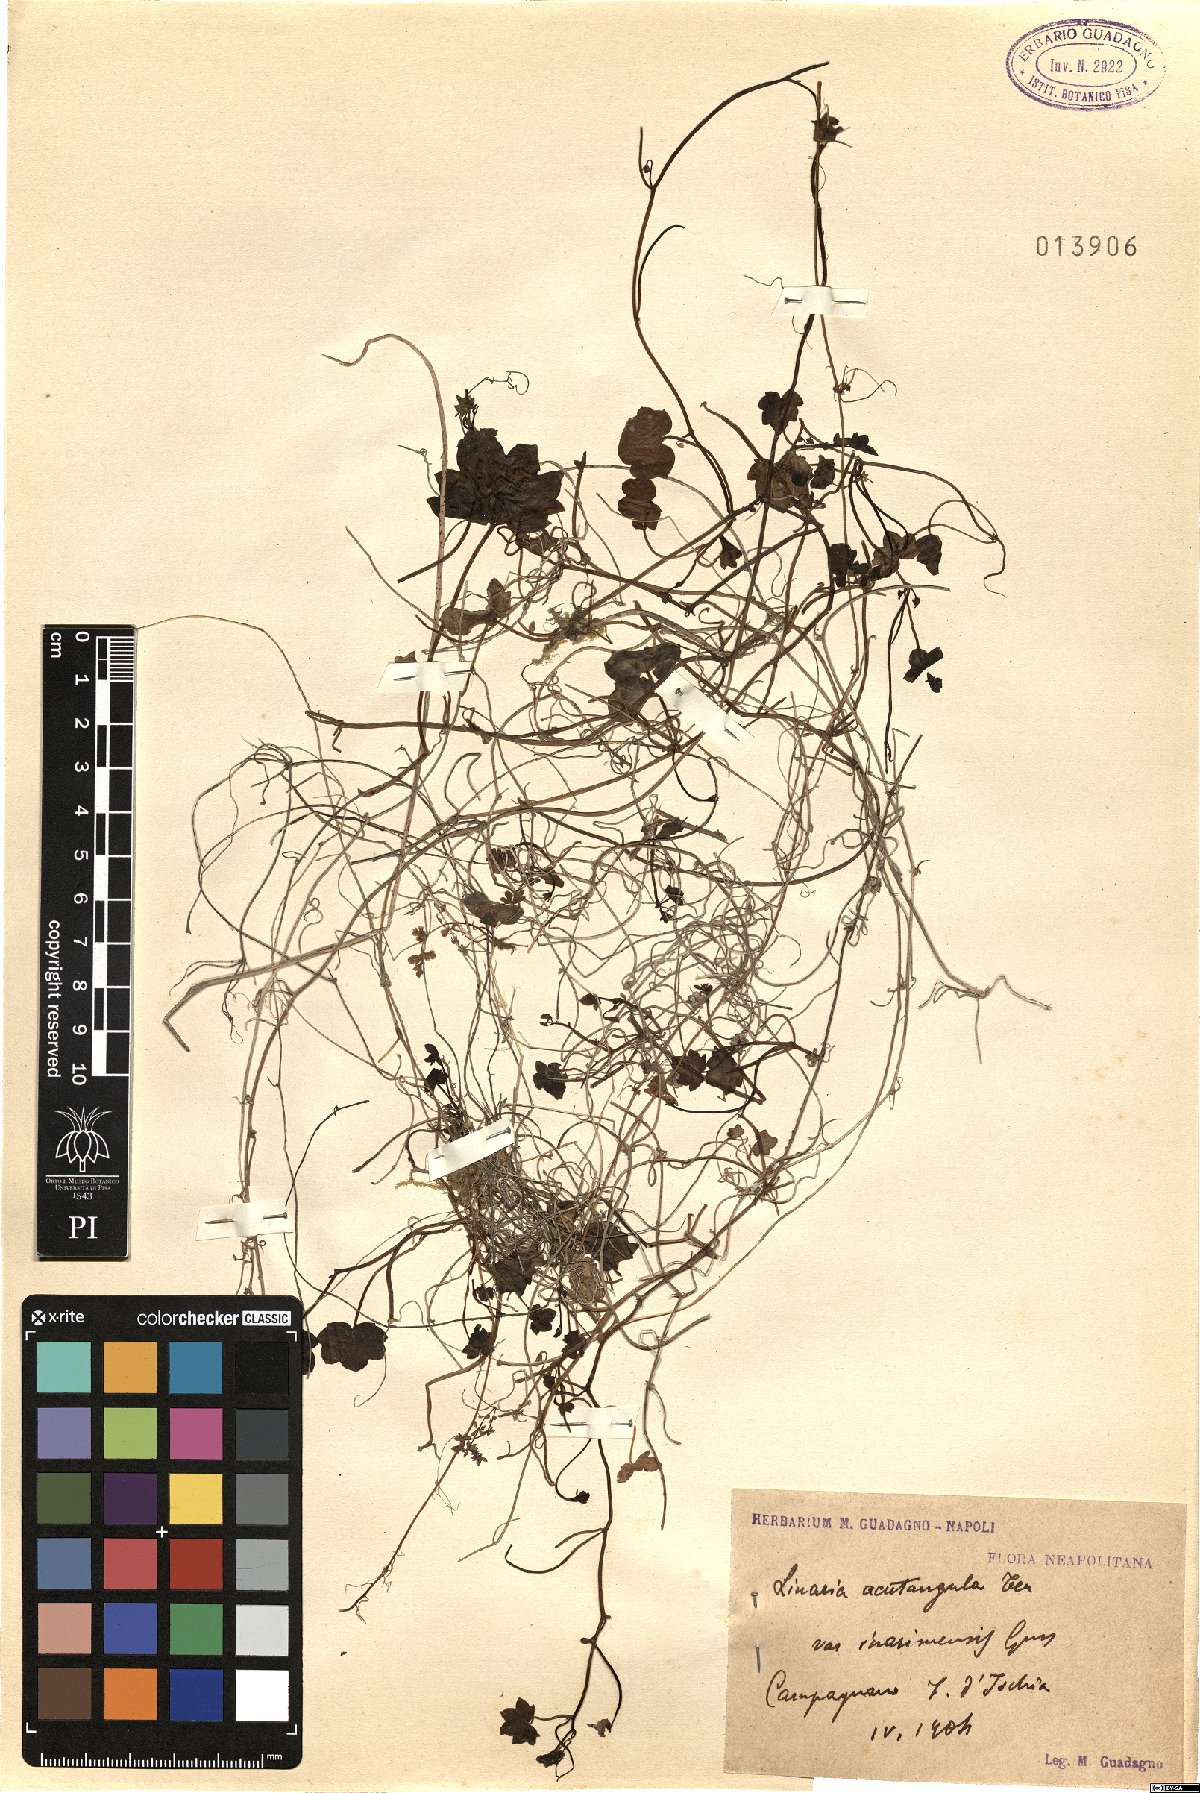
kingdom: Plantae
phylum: Tracheophyta
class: Magnoliopsida
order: Lamiales
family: Plantaginaceae
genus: Cymbalaria
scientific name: Cymbalaria muralis
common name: Ivy-leaved toadflax
